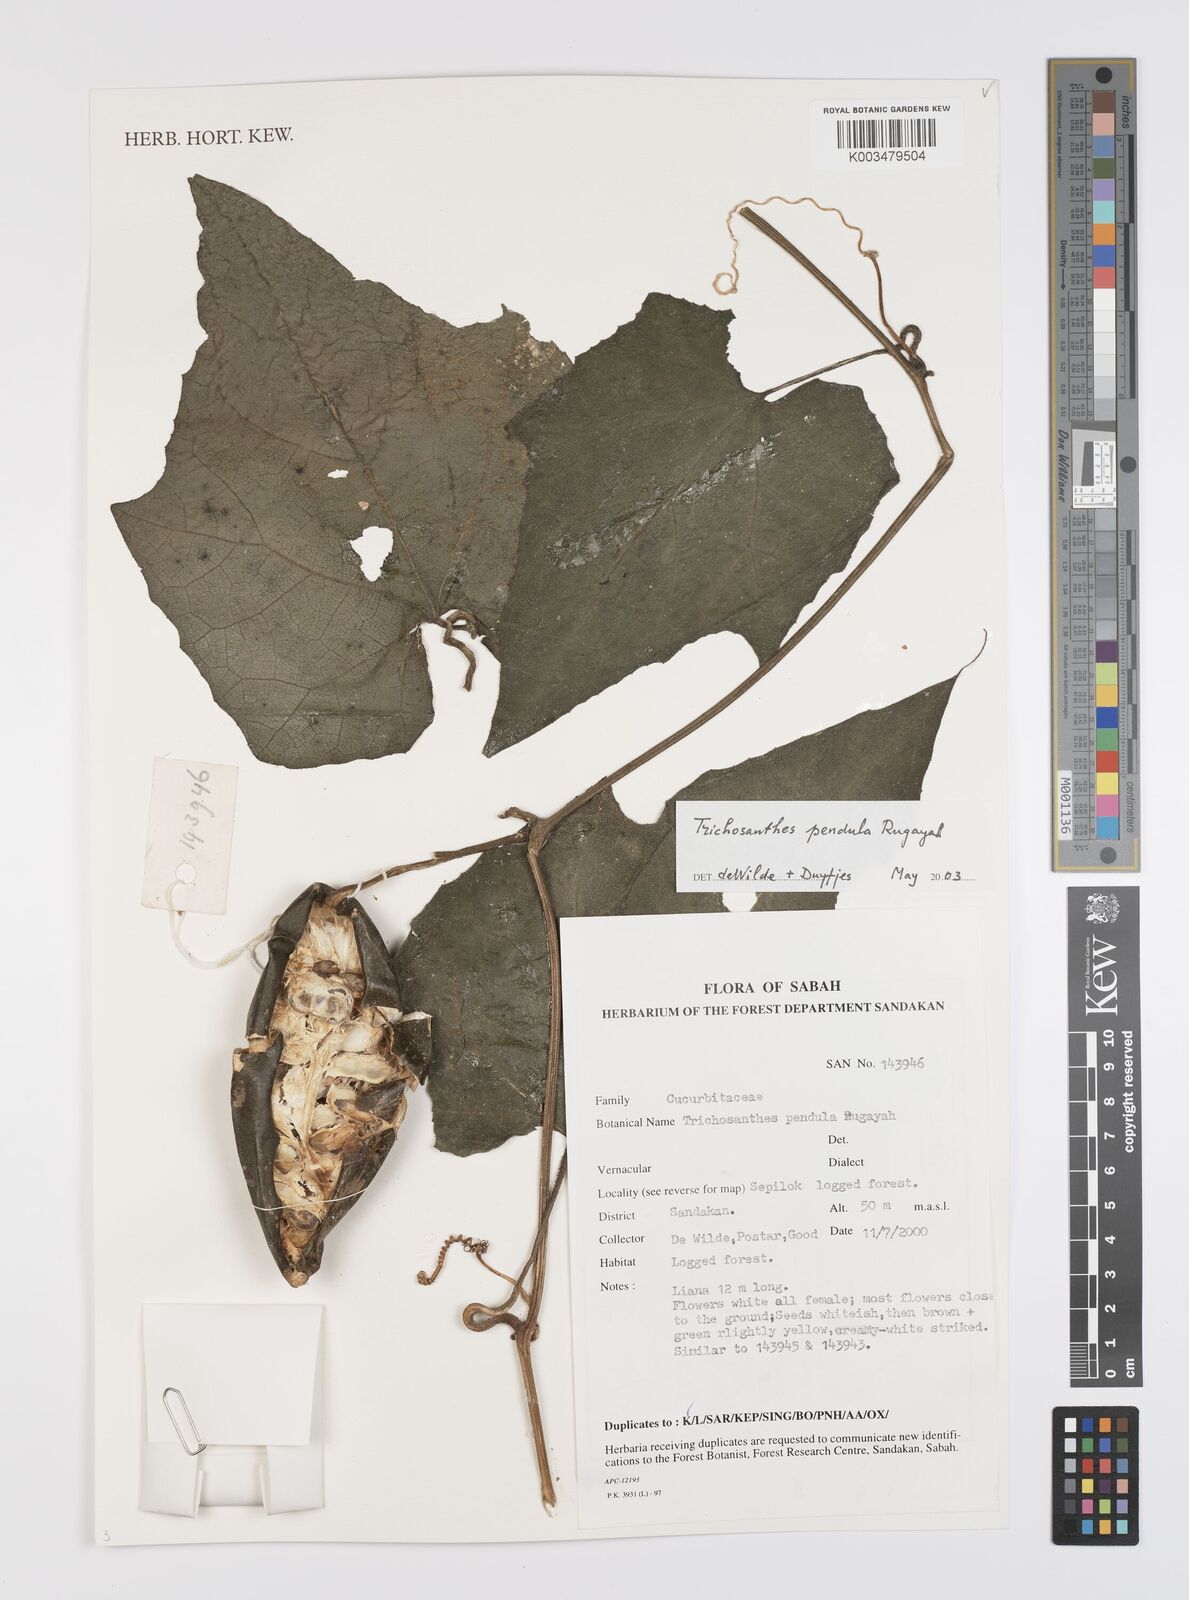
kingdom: Plantae
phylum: Tracheophyta
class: Magnoliopsida
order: Cucurbitales
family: Cucurbitaceae
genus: Trichosanthes
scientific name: Trichosanthes pendula
